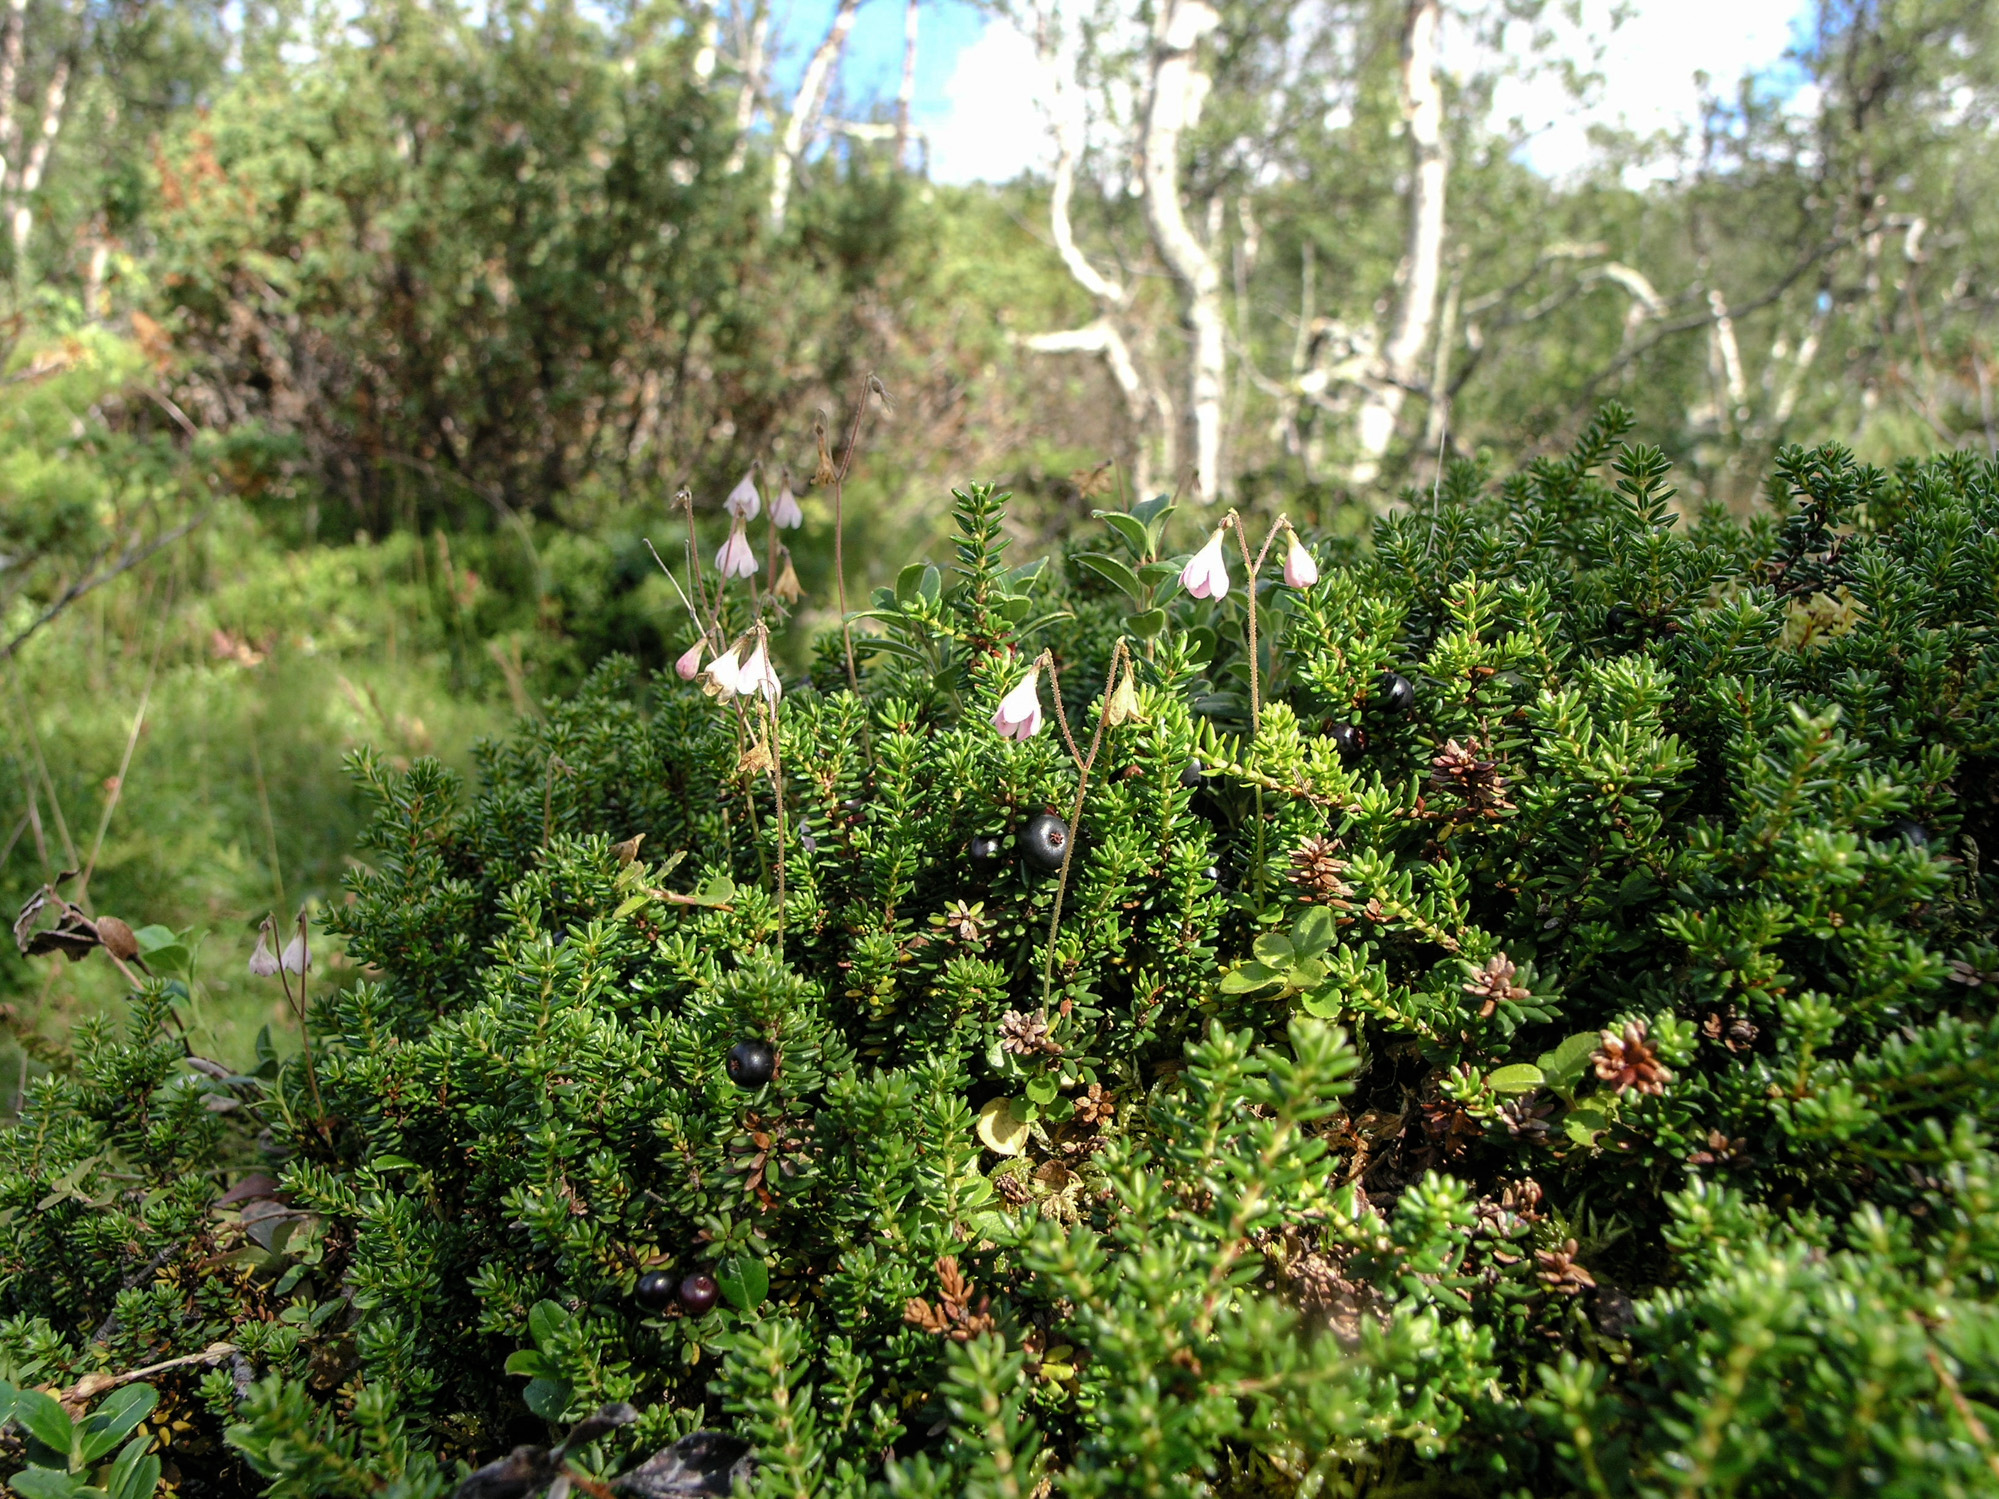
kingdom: Plantae
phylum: Tracheophyta
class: Magnoliopsida
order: Dipsacales
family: Caprifoliaceae
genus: Linnaea
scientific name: Linnaea borealis
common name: Twinflower
